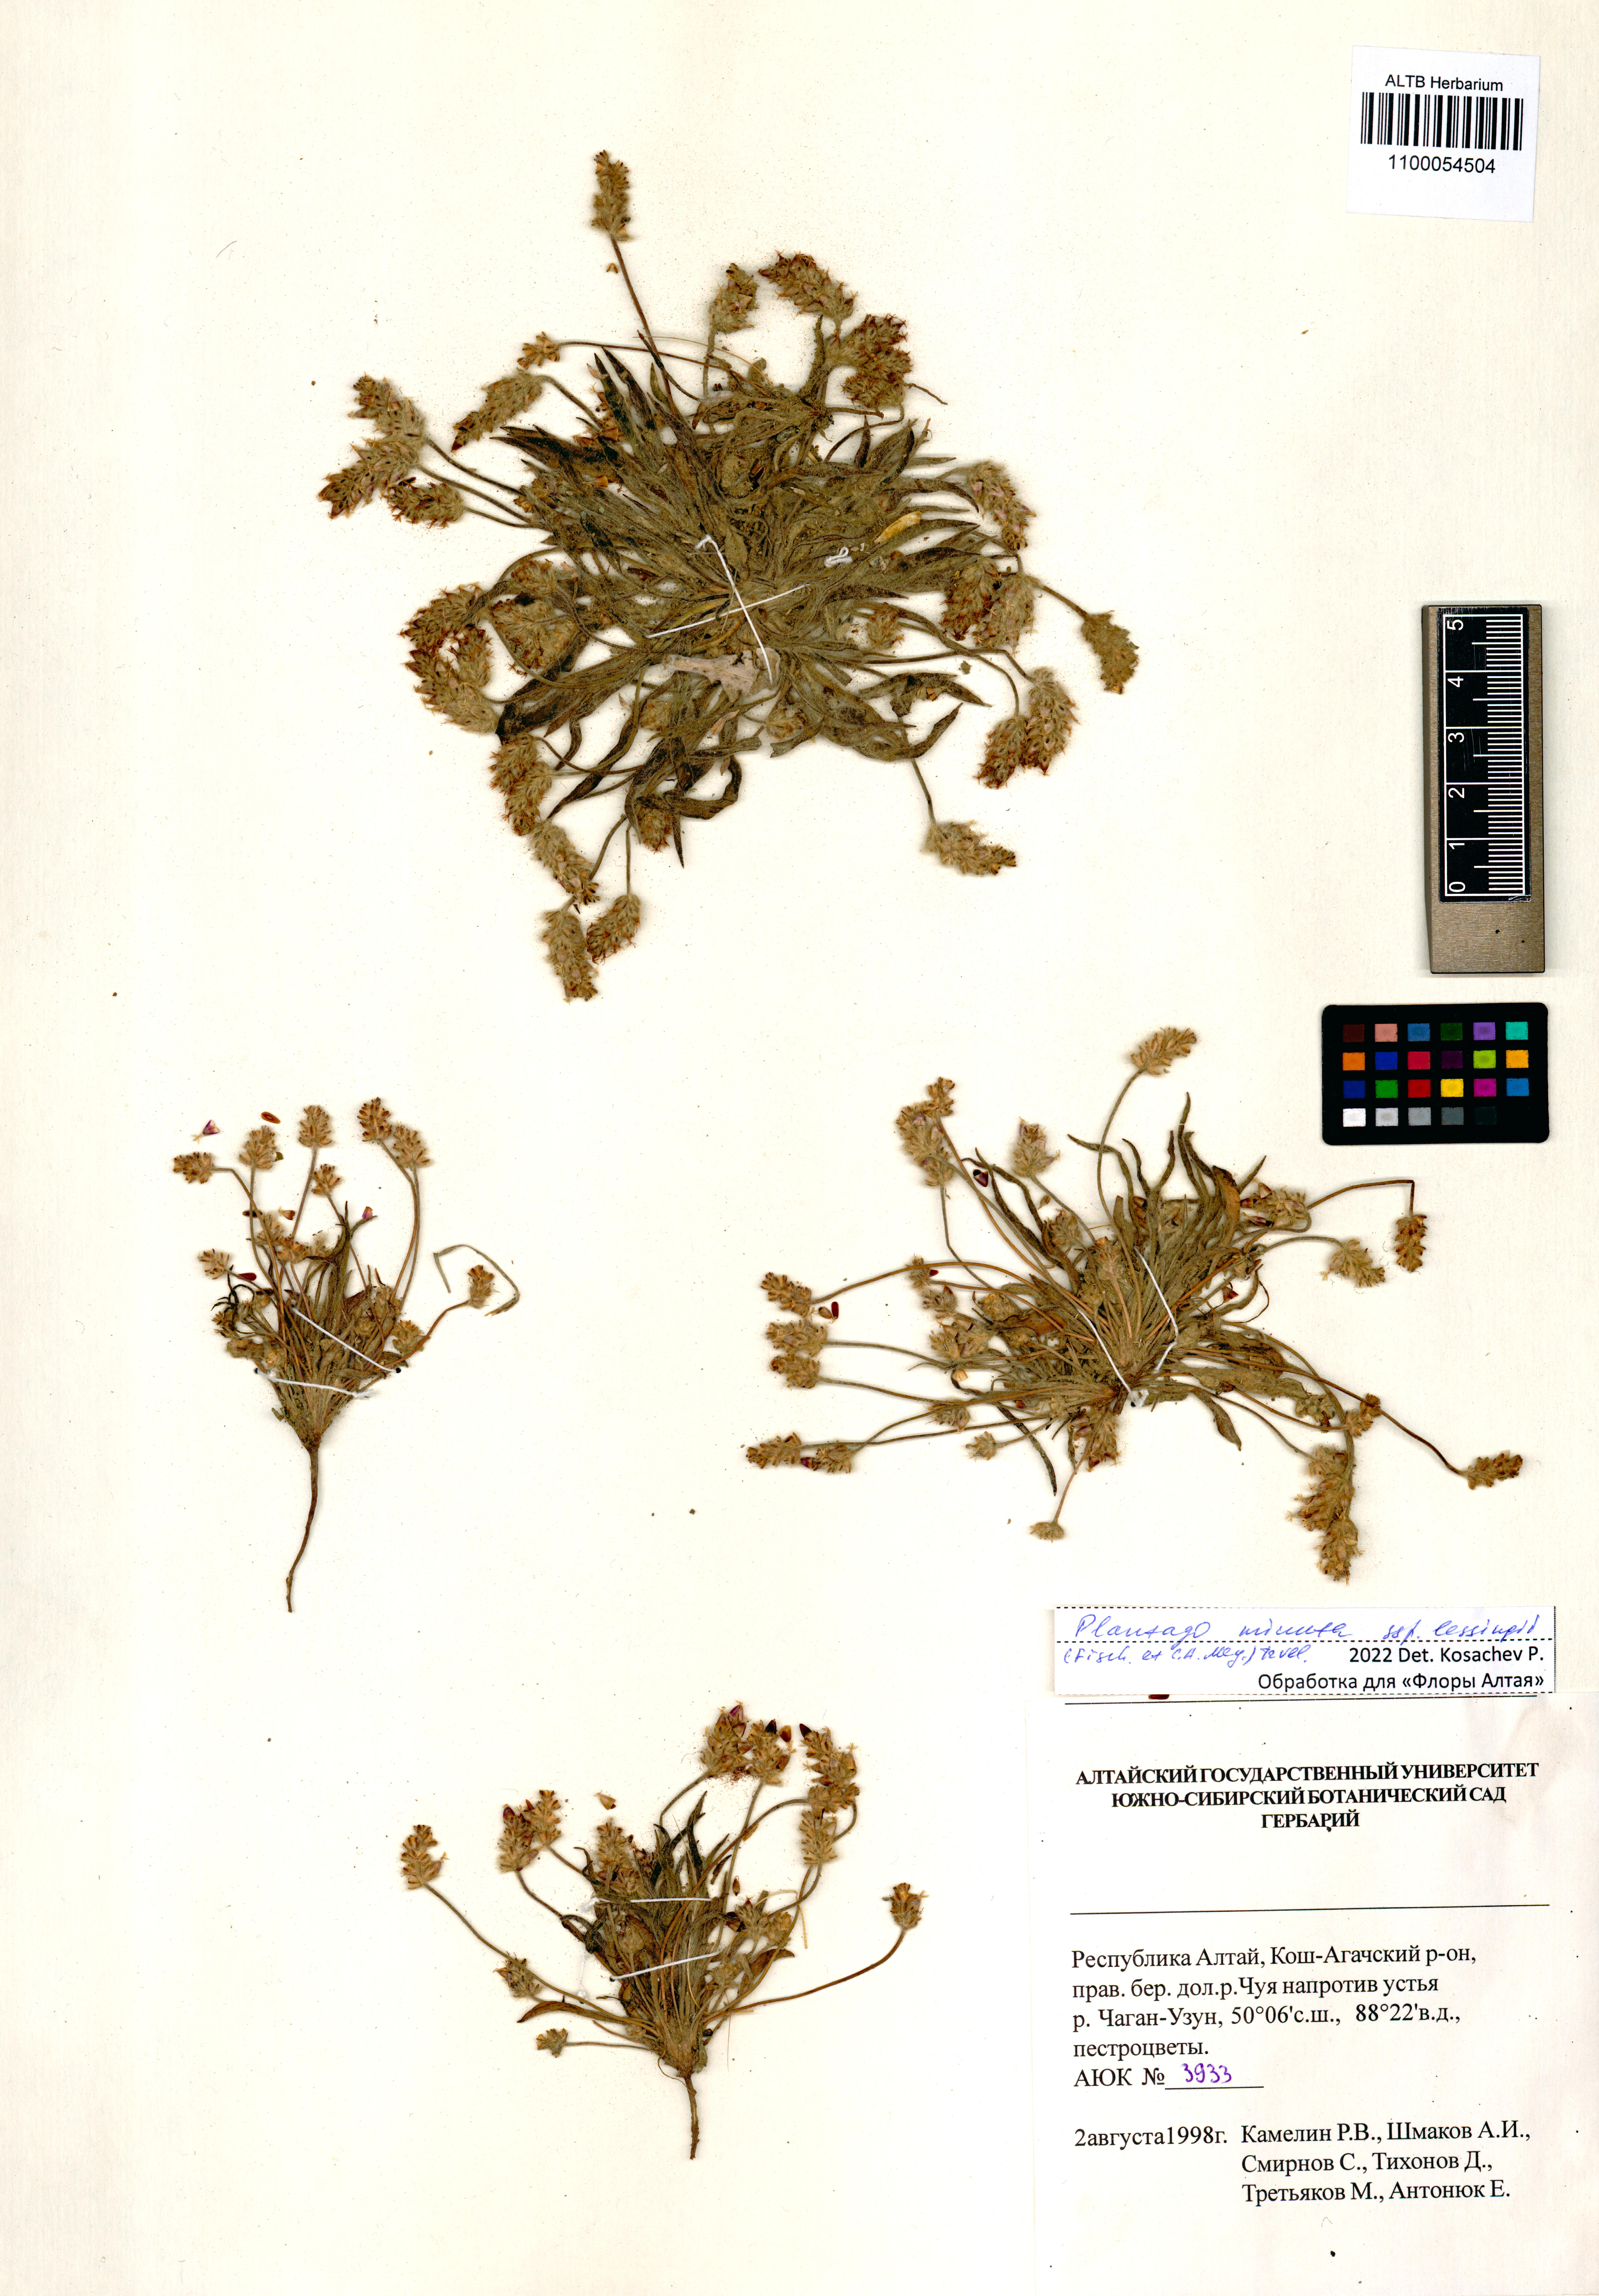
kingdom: Plantae
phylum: Tracheophyta
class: Magnoliopsida
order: Lamiales
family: Plantaginaceae
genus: Plantago
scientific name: Plantago minuta
